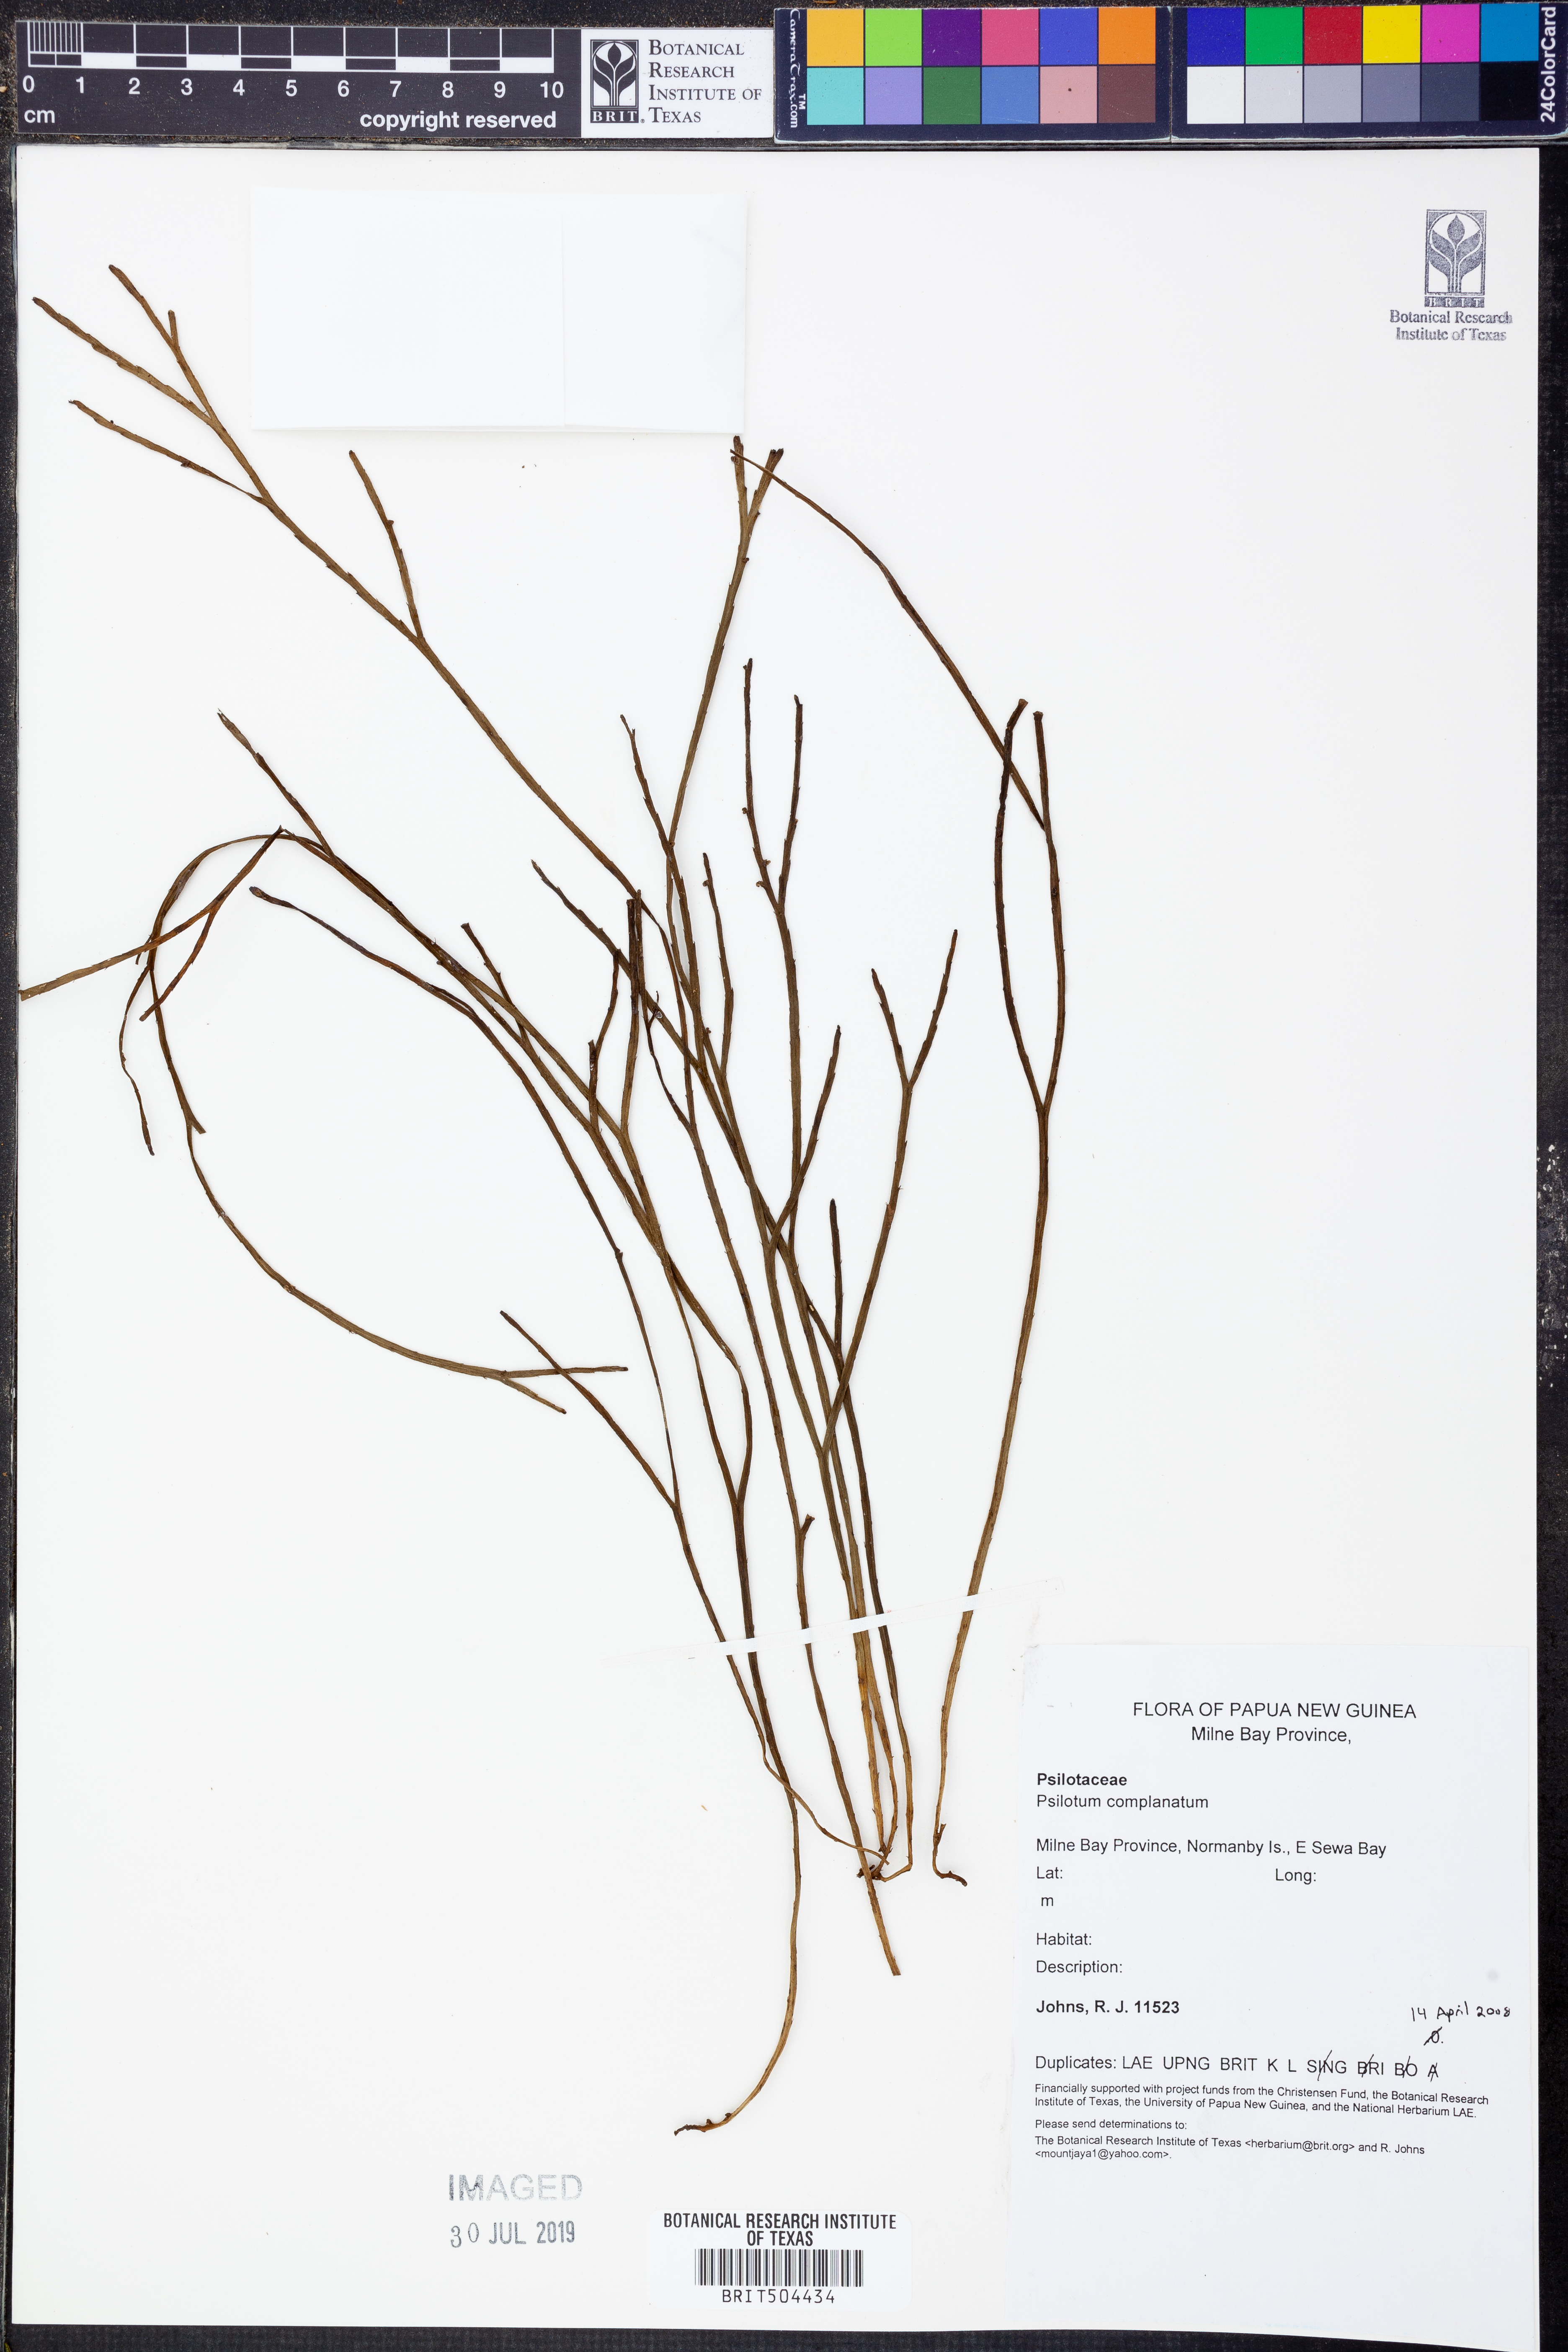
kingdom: Plantae
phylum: Tracheophyta
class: Polypodiopsida
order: Psilotales
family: Psilotaceae
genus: Psilotum
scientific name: Psilotum complanatum
